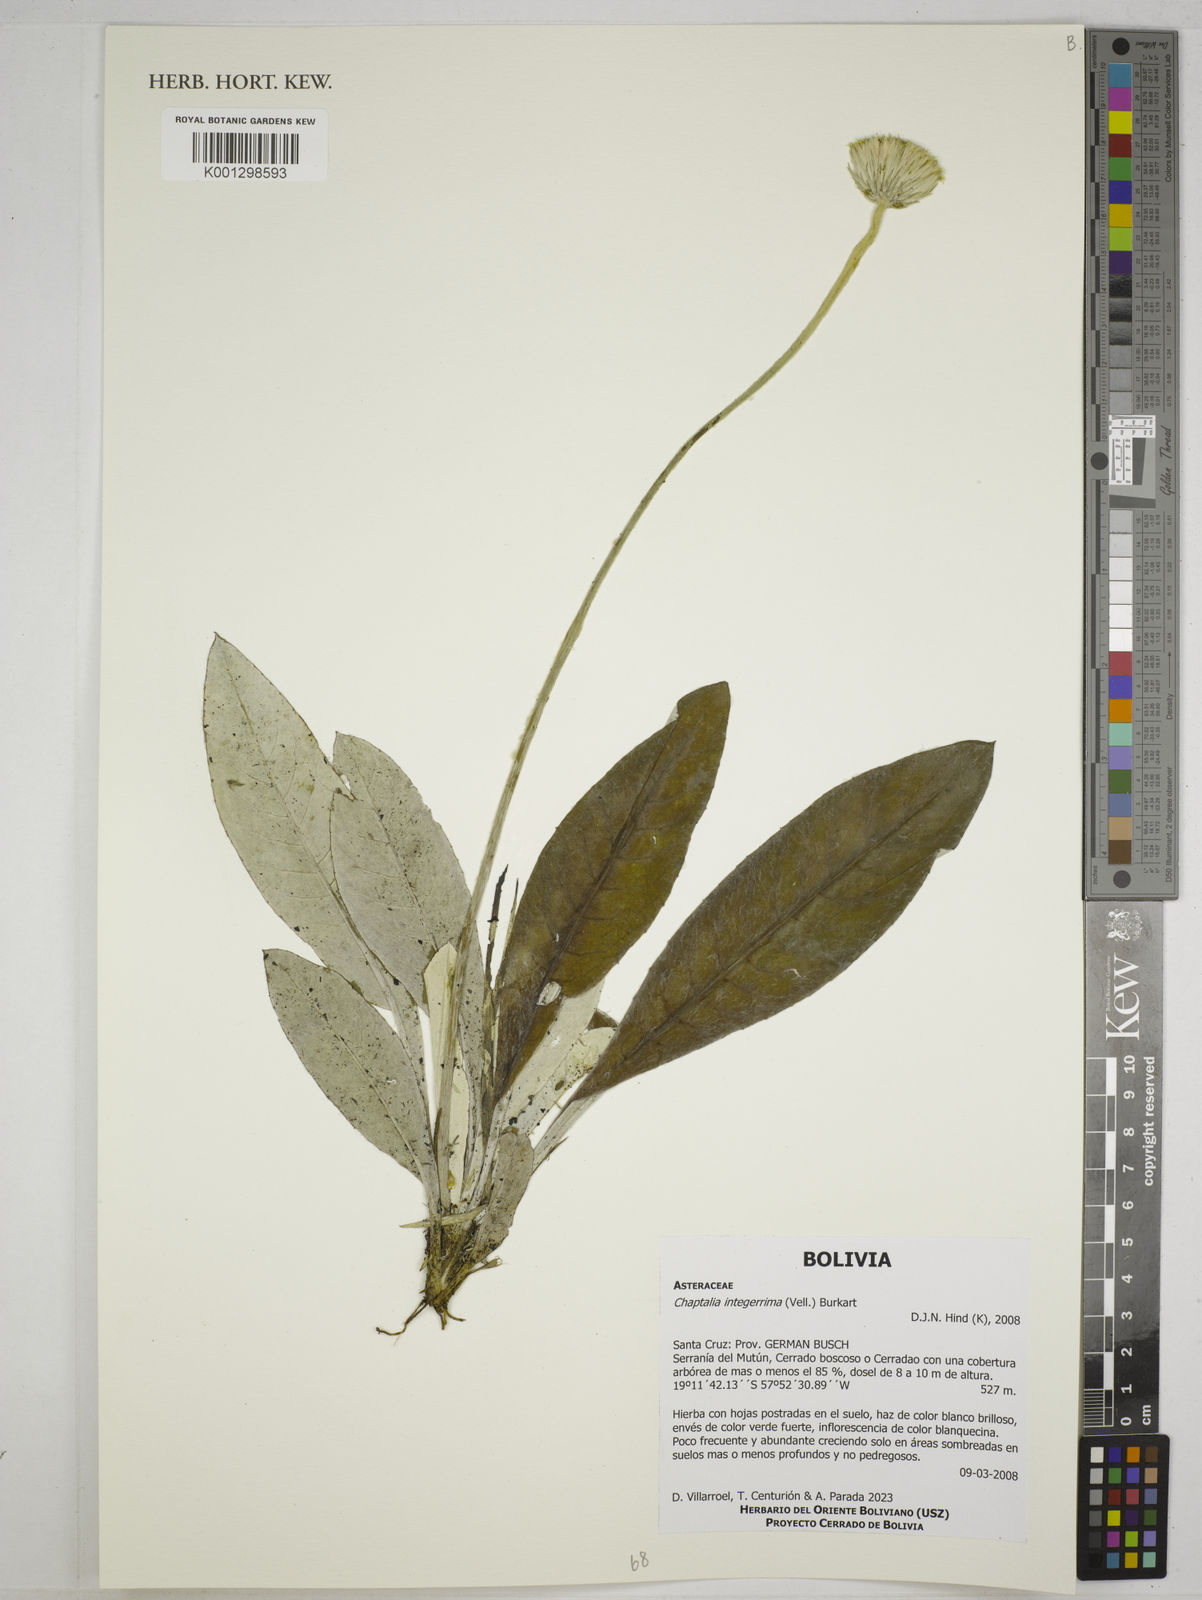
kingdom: Plantae
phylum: Tracheophyta
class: Magnoliopsida
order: Asterales
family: Asteraceae
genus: Chaptalia
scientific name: Chaptalia integerrima
